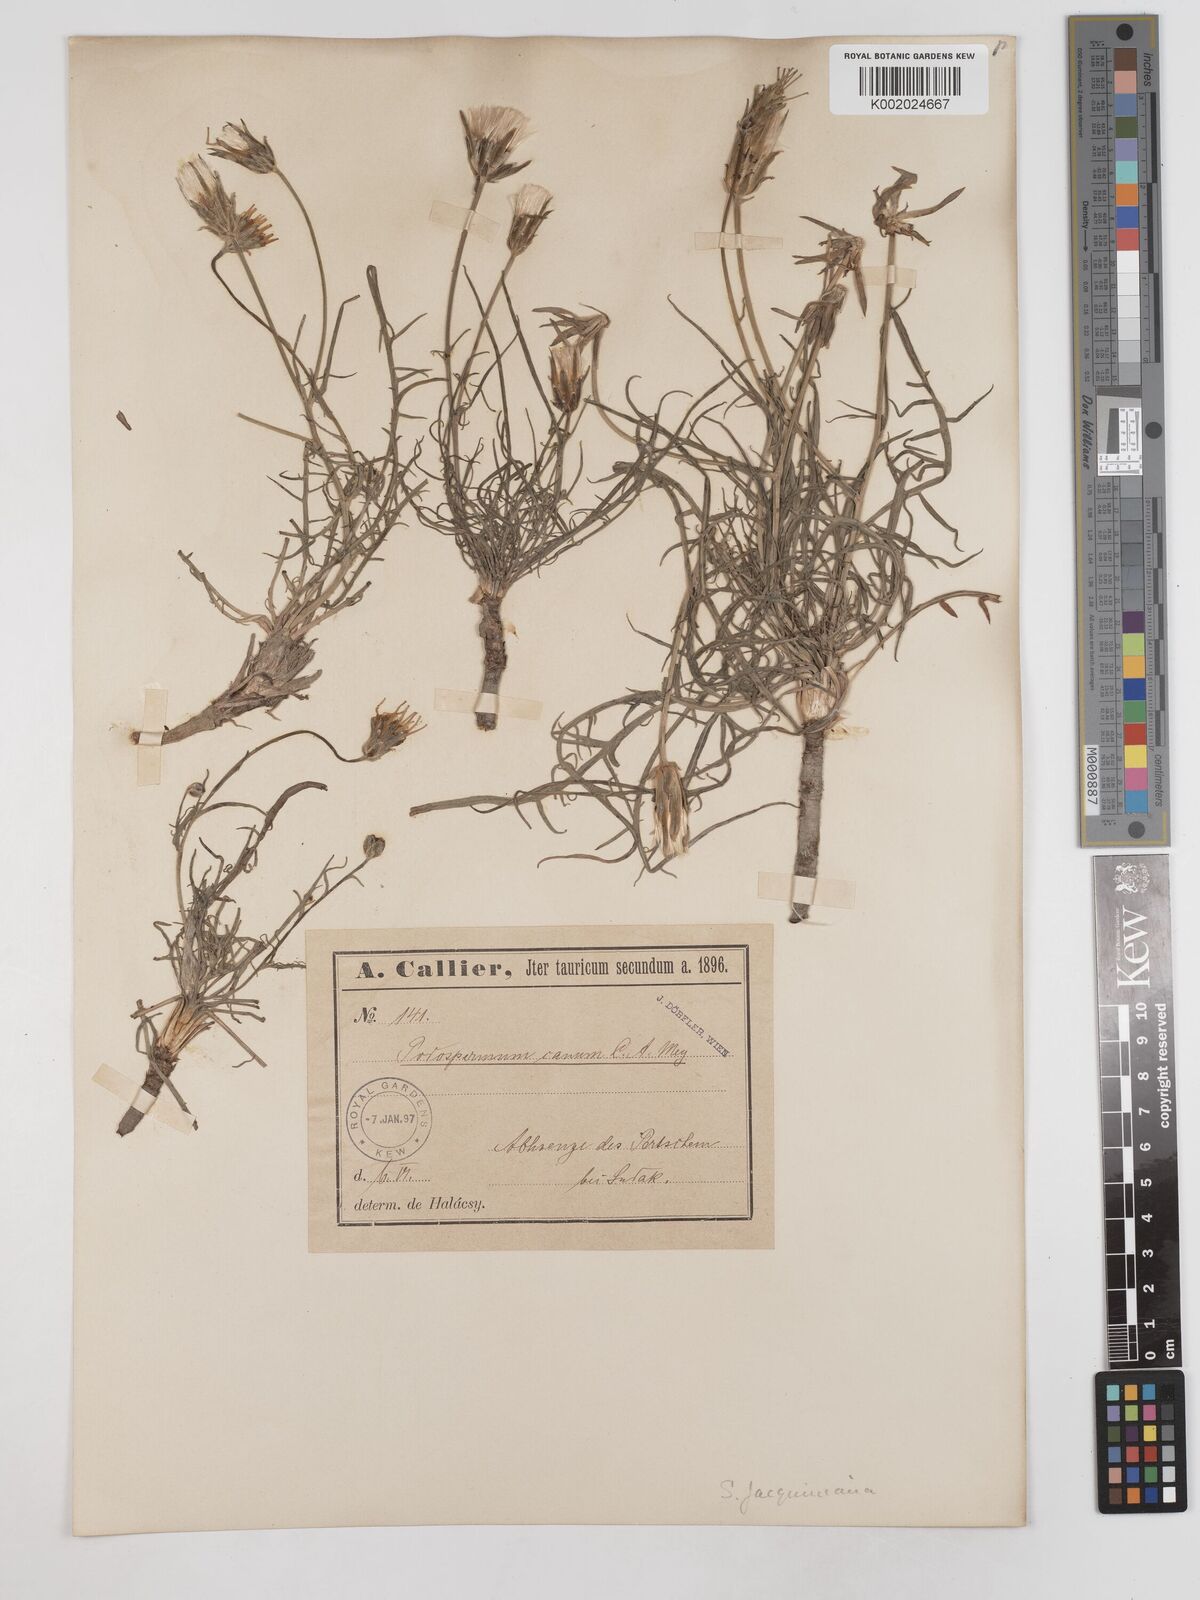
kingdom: Plantae
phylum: Tracheophyta
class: Magnoliopsida
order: Asterales
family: Asteraceae
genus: Scorzonera
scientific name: Scorzonera cana
